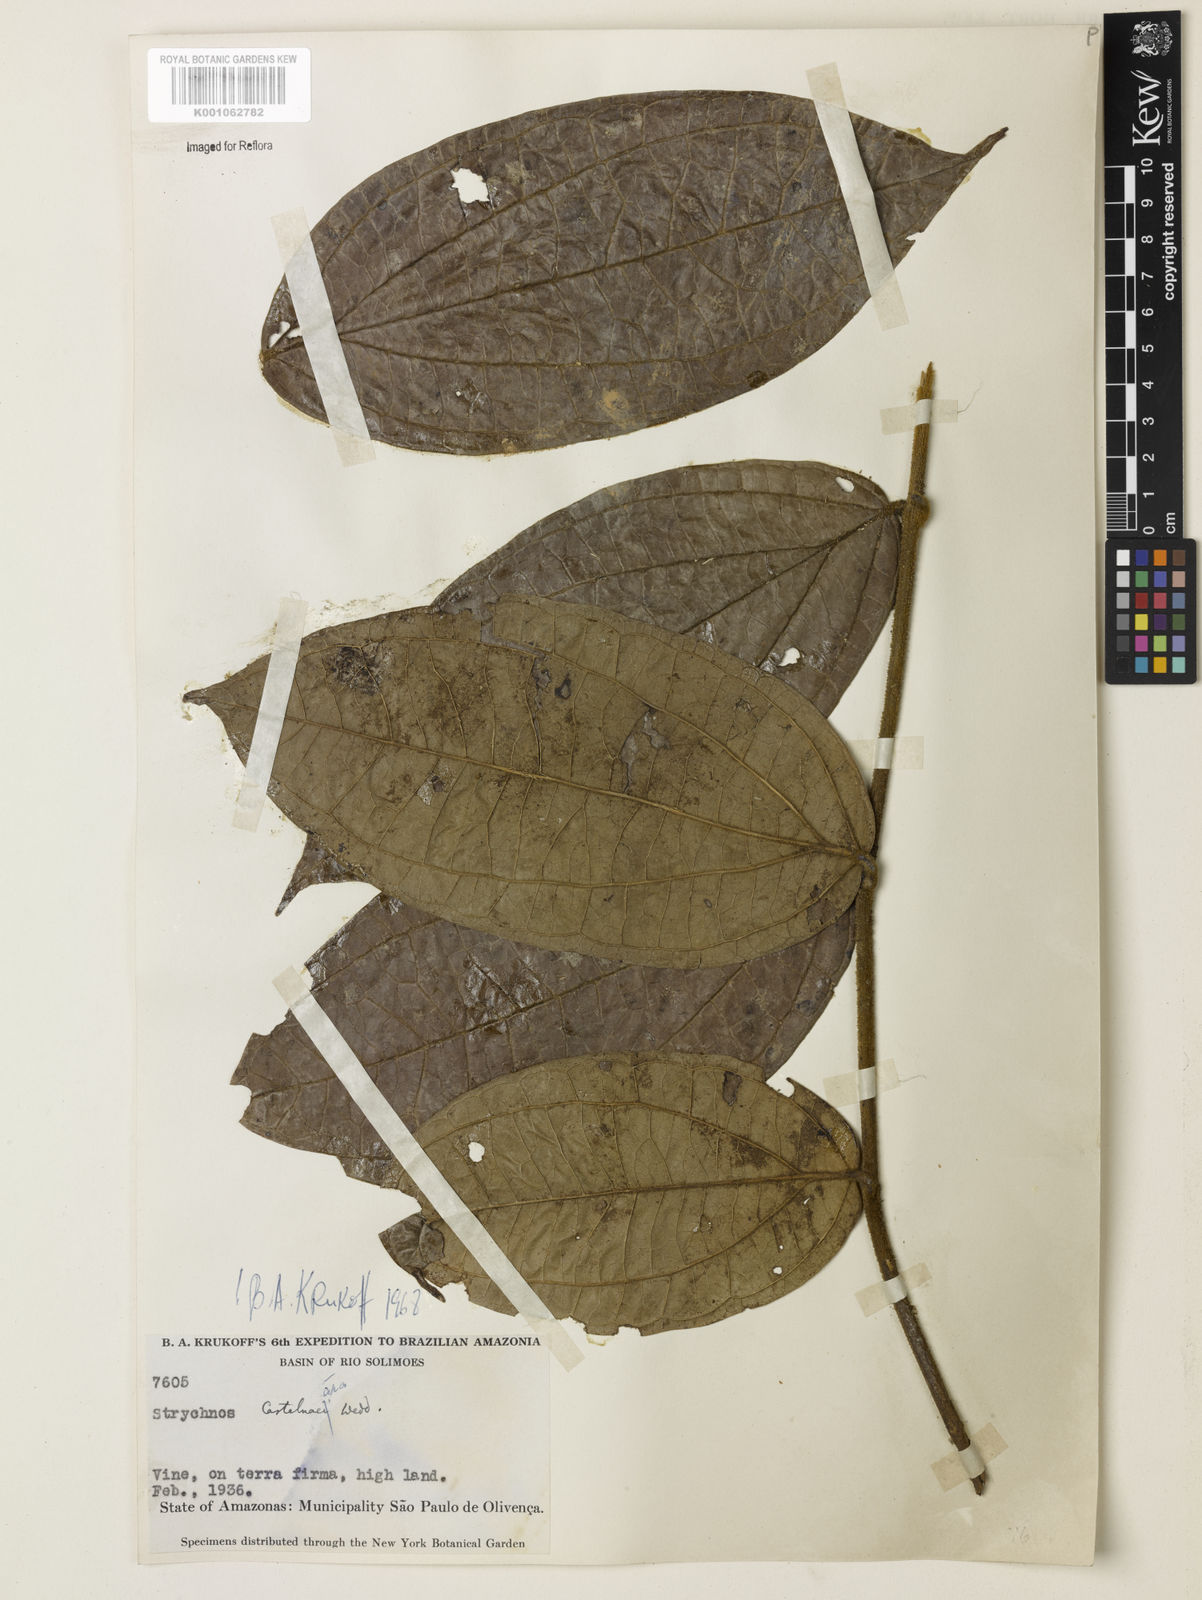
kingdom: Plantae
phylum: Tracheophyta
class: Magnoliopsida
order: Gentianales
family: Loganiaceae
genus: Strychnos
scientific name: Strychnos
